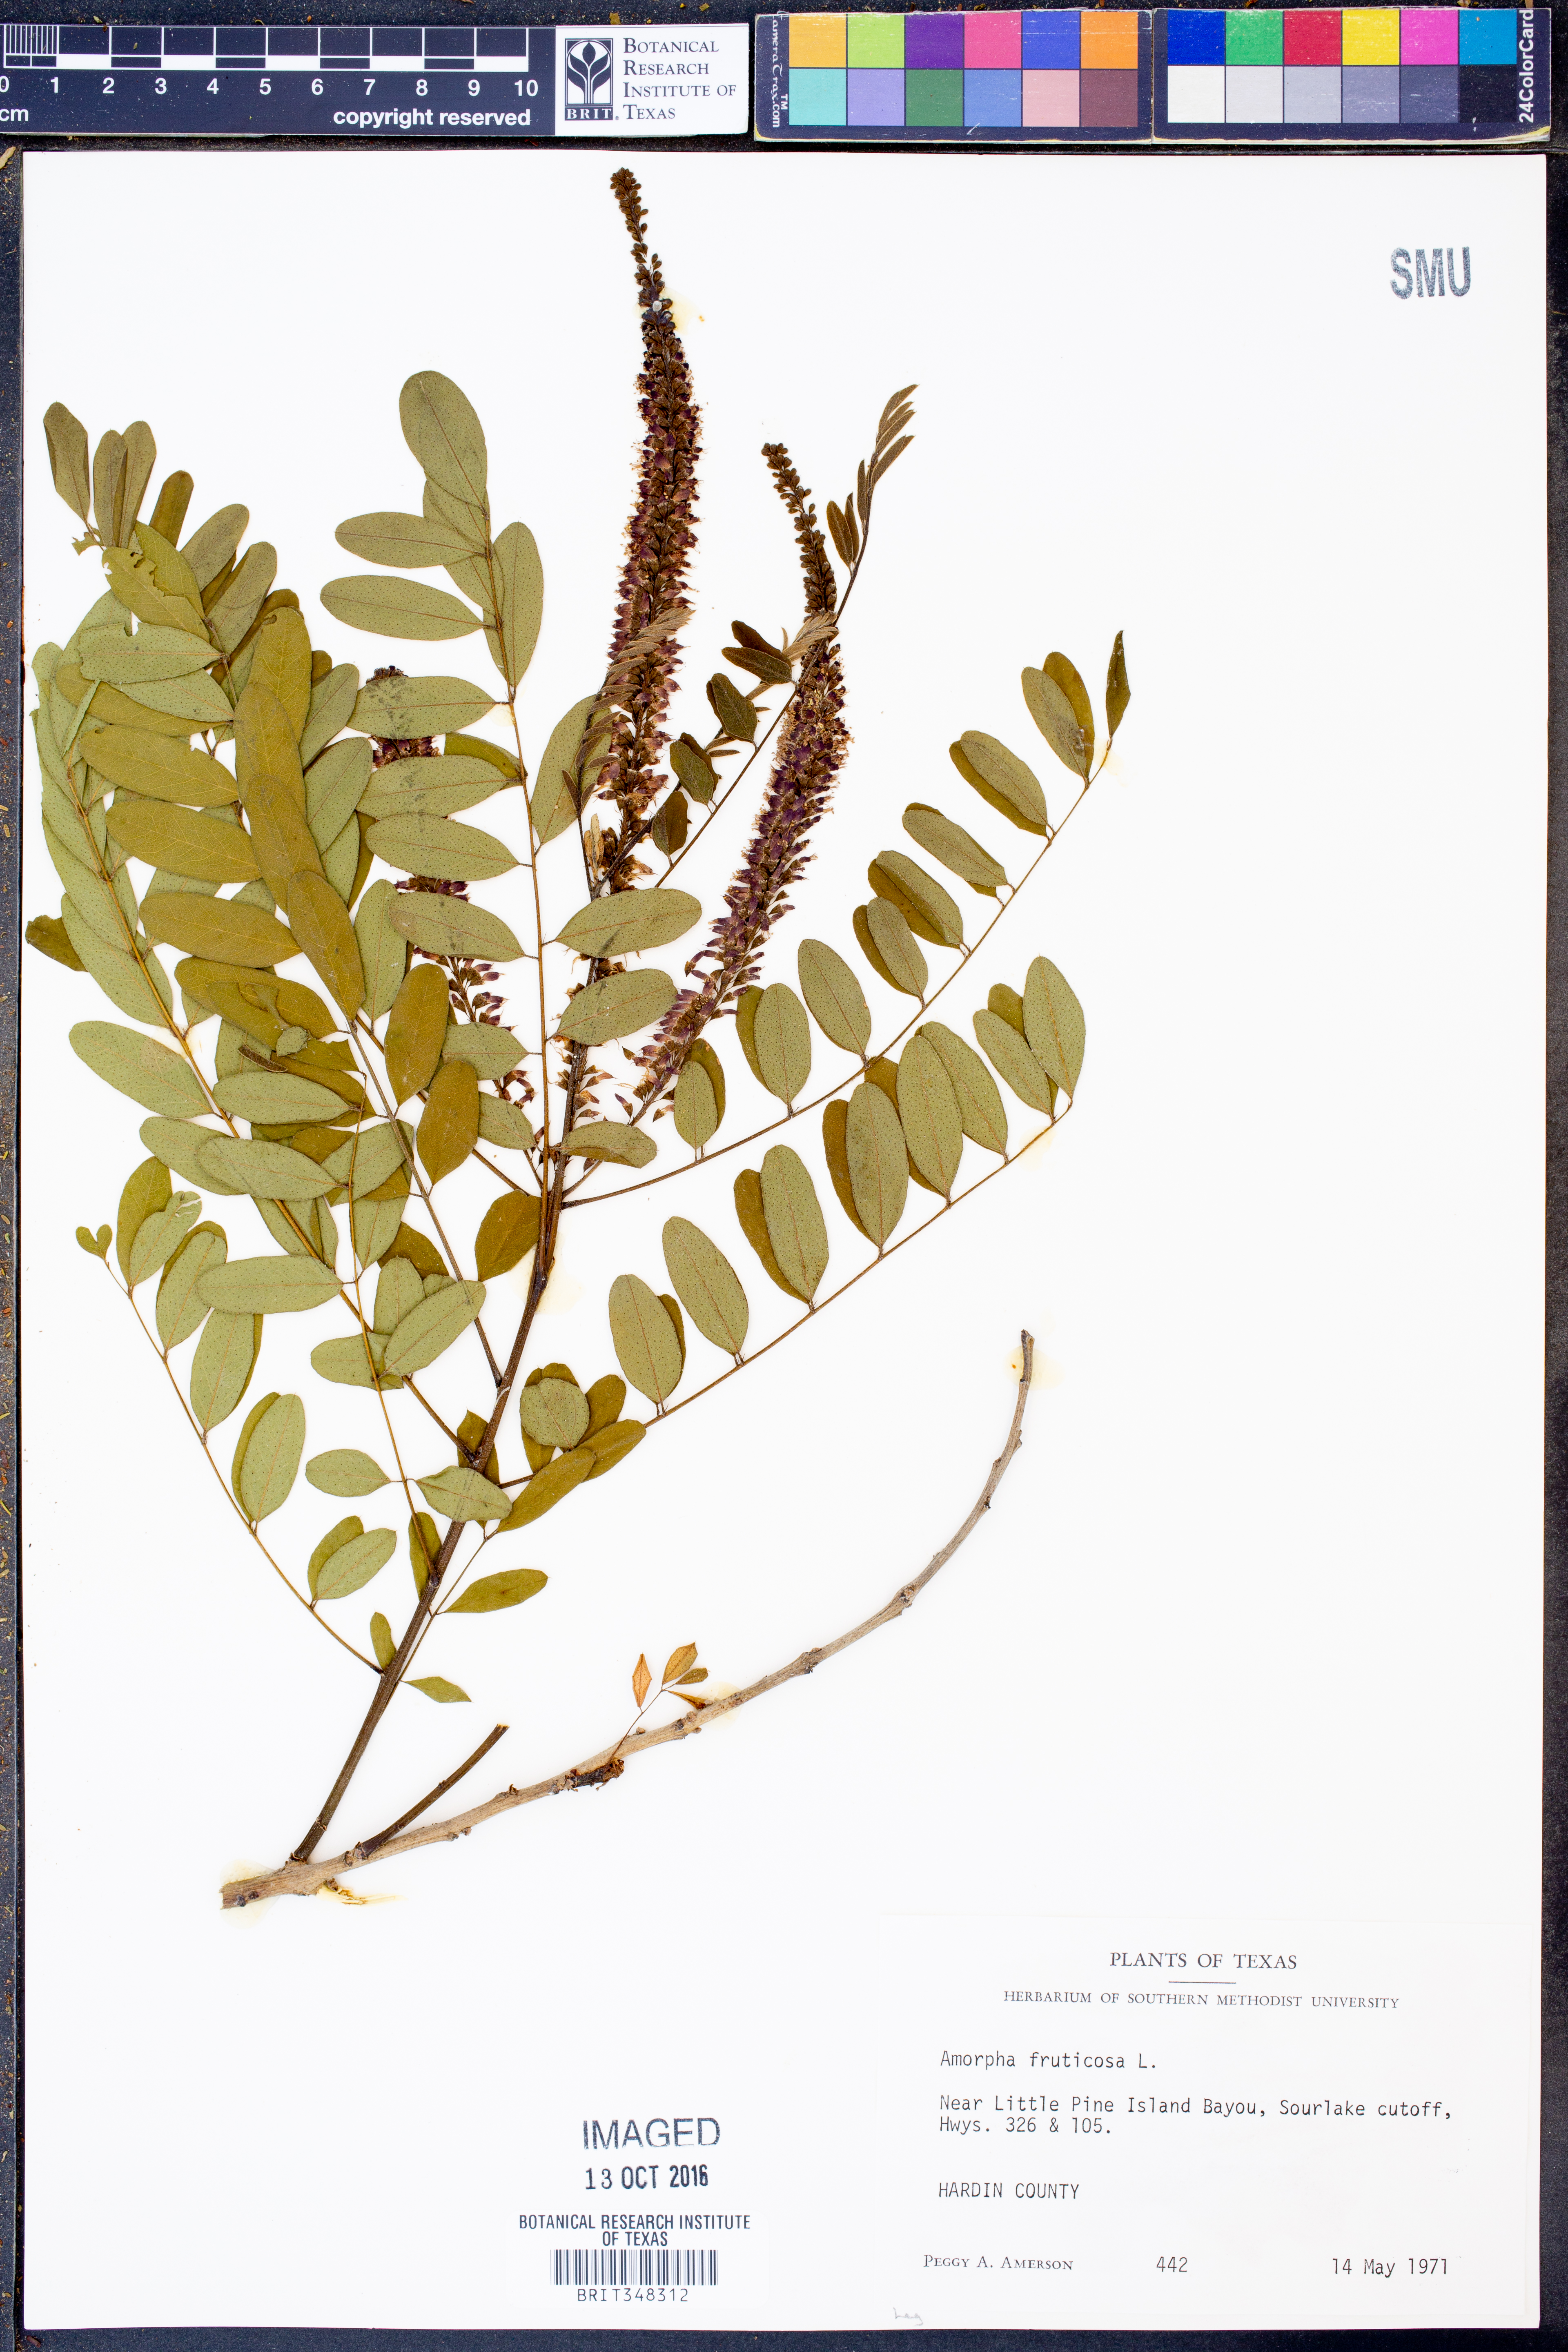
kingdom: Plantae
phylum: Tracheophyta
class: Magnoliopsida
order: Fabales
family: Fabaceae
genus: Amorpha
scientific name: Amorpha fruticosa
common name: False indigo
